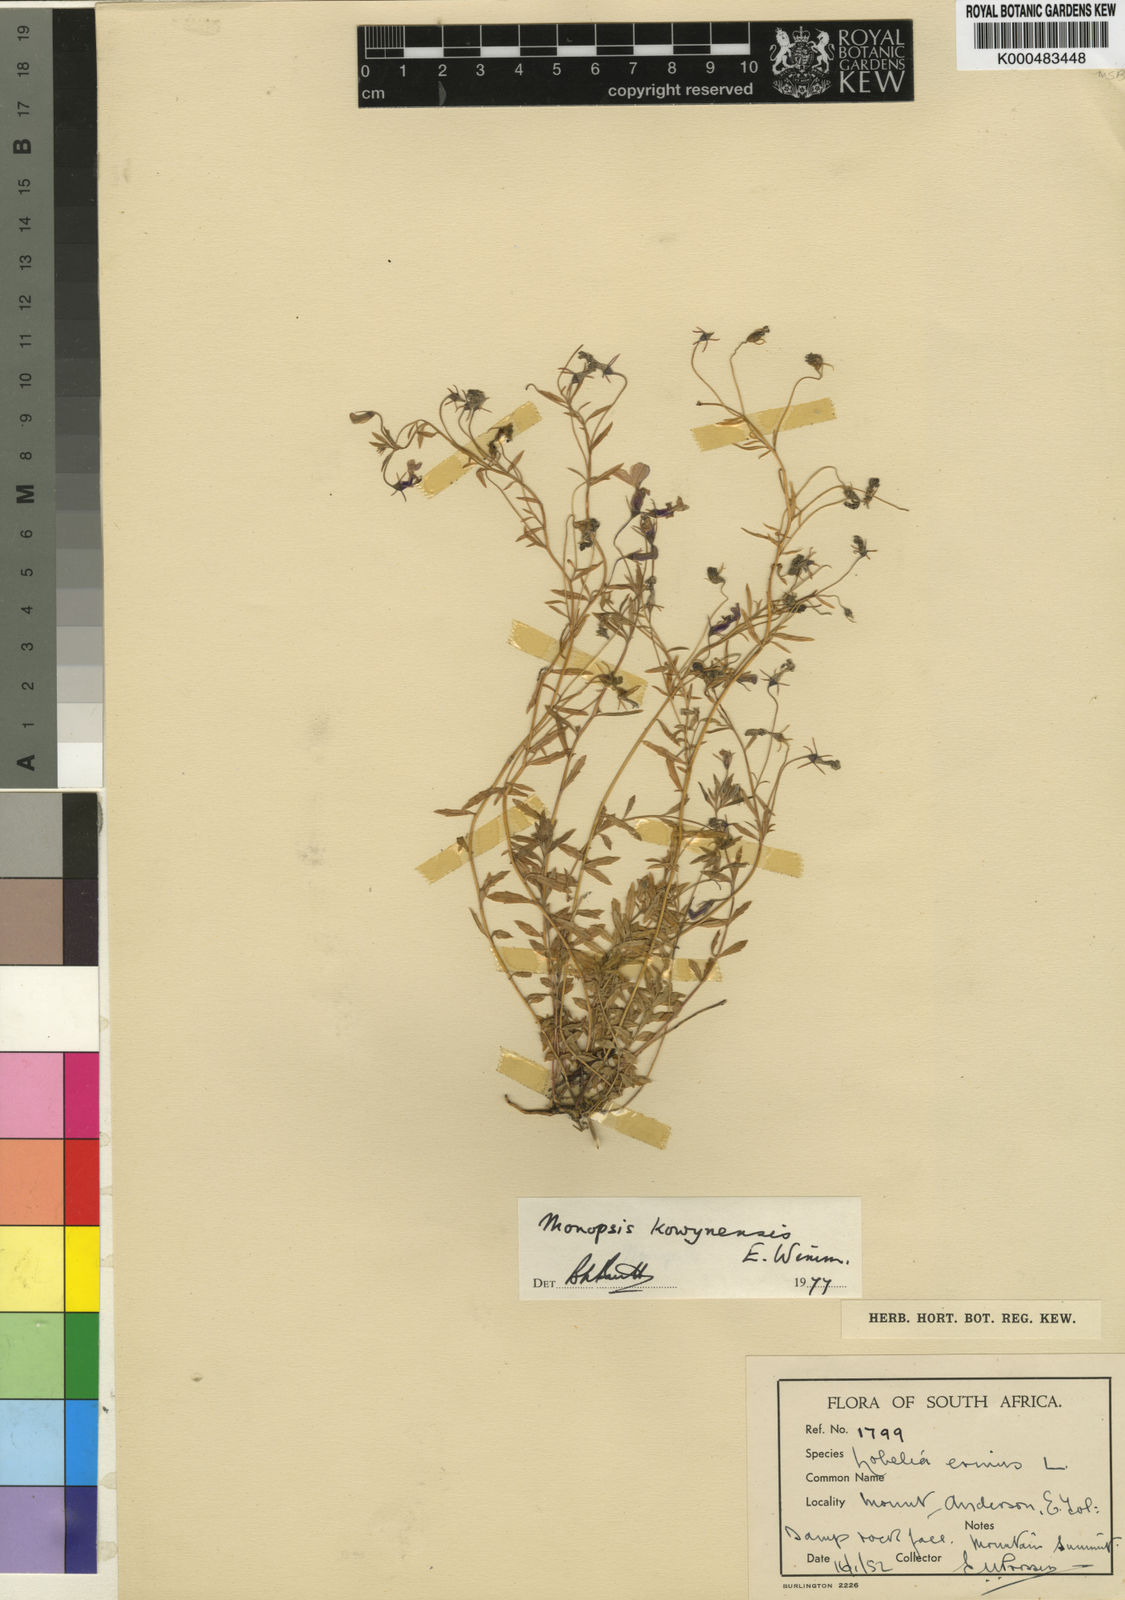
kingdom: Plantae
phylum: Tracheophyta
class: Magnoliopsida
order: Asterales
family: Campanulaceae
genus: Monopsis
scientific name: Monopsis kowynensis
